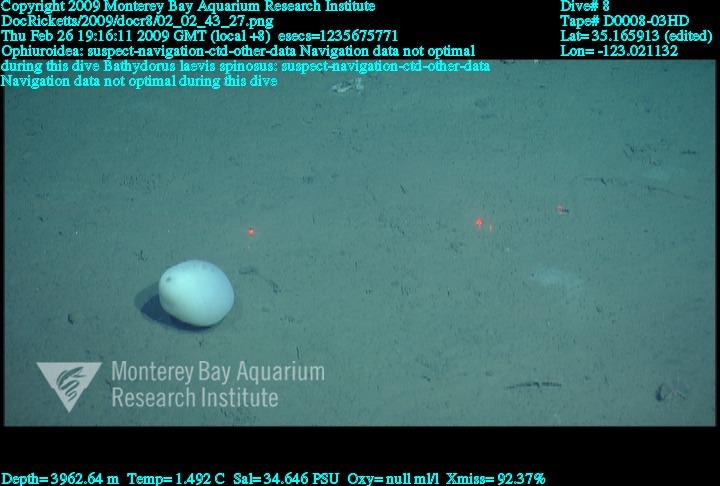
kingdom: Animalia
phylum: Porifera
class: Hexactinellida
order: Lyssacinosida
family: Rossellidae
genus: Bathydorus
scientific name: Bathydorus spinosus
